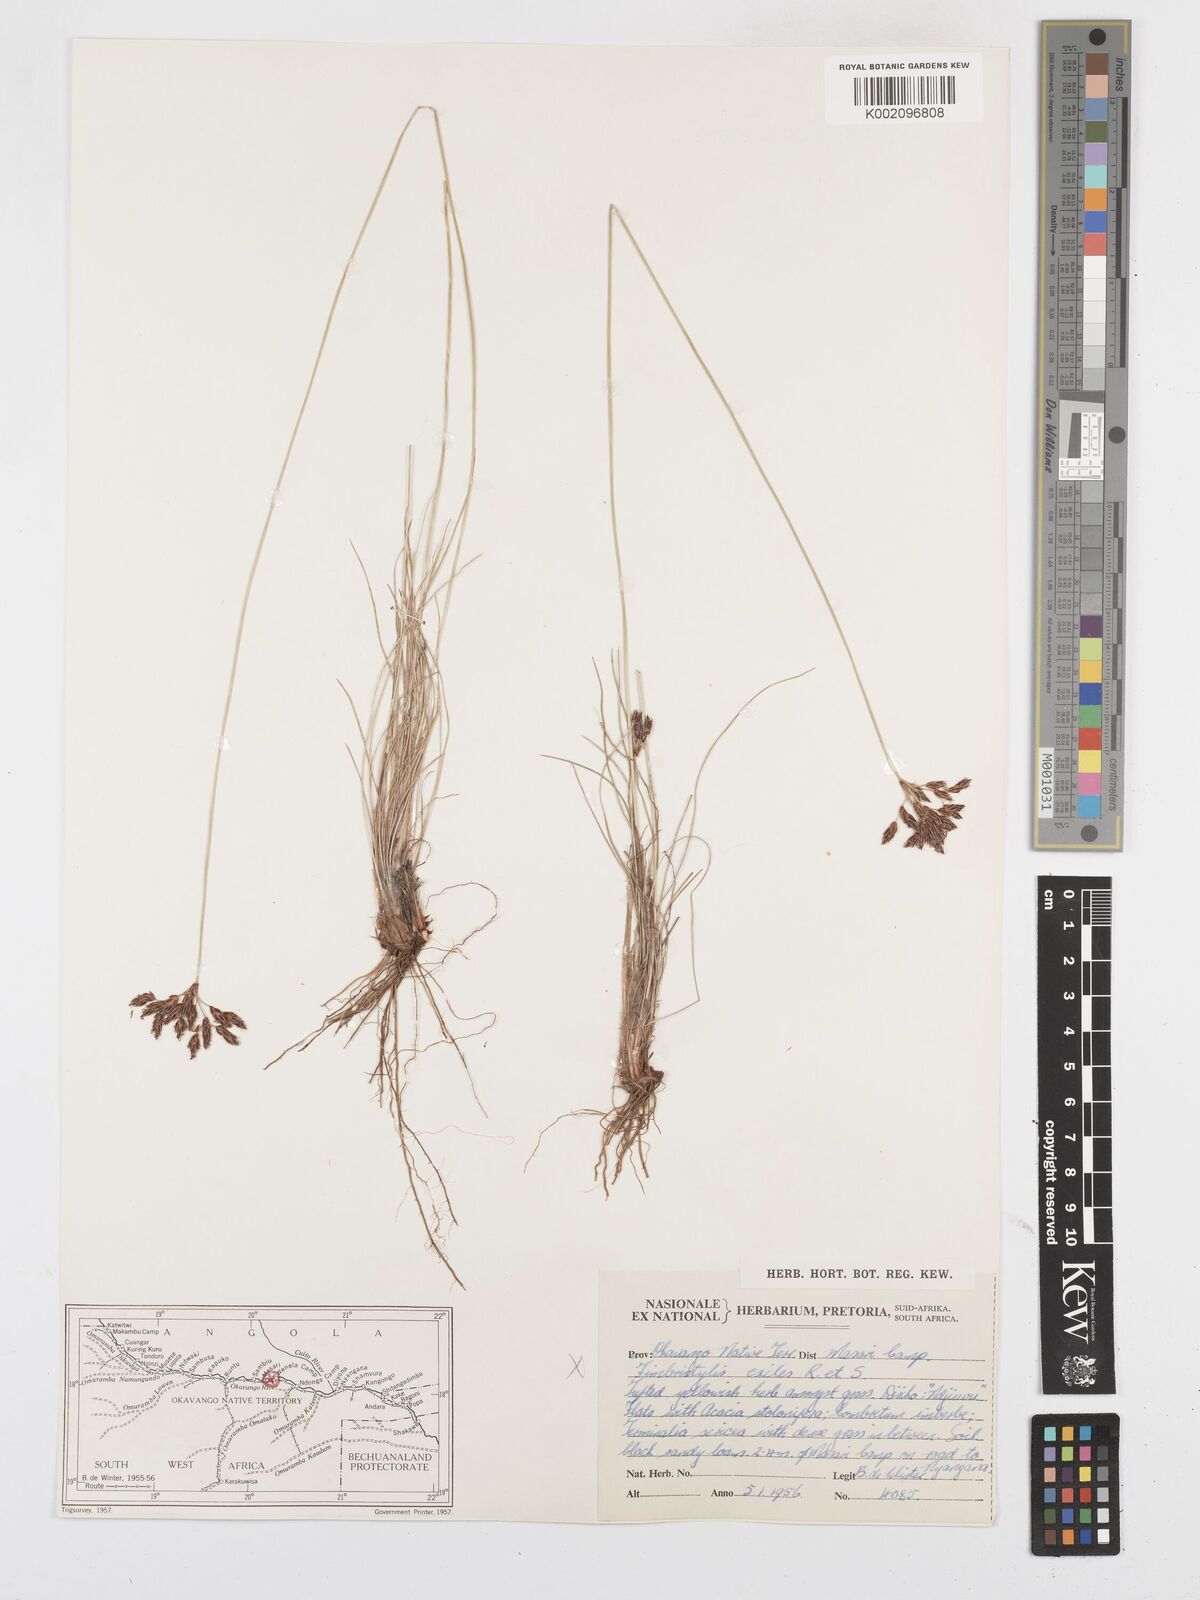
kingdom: Plantae
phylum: Tracheophyta
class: Liliopsida
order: Poales
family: Cyperaceae
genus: Bulbostylis
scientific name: Bulbostylis
